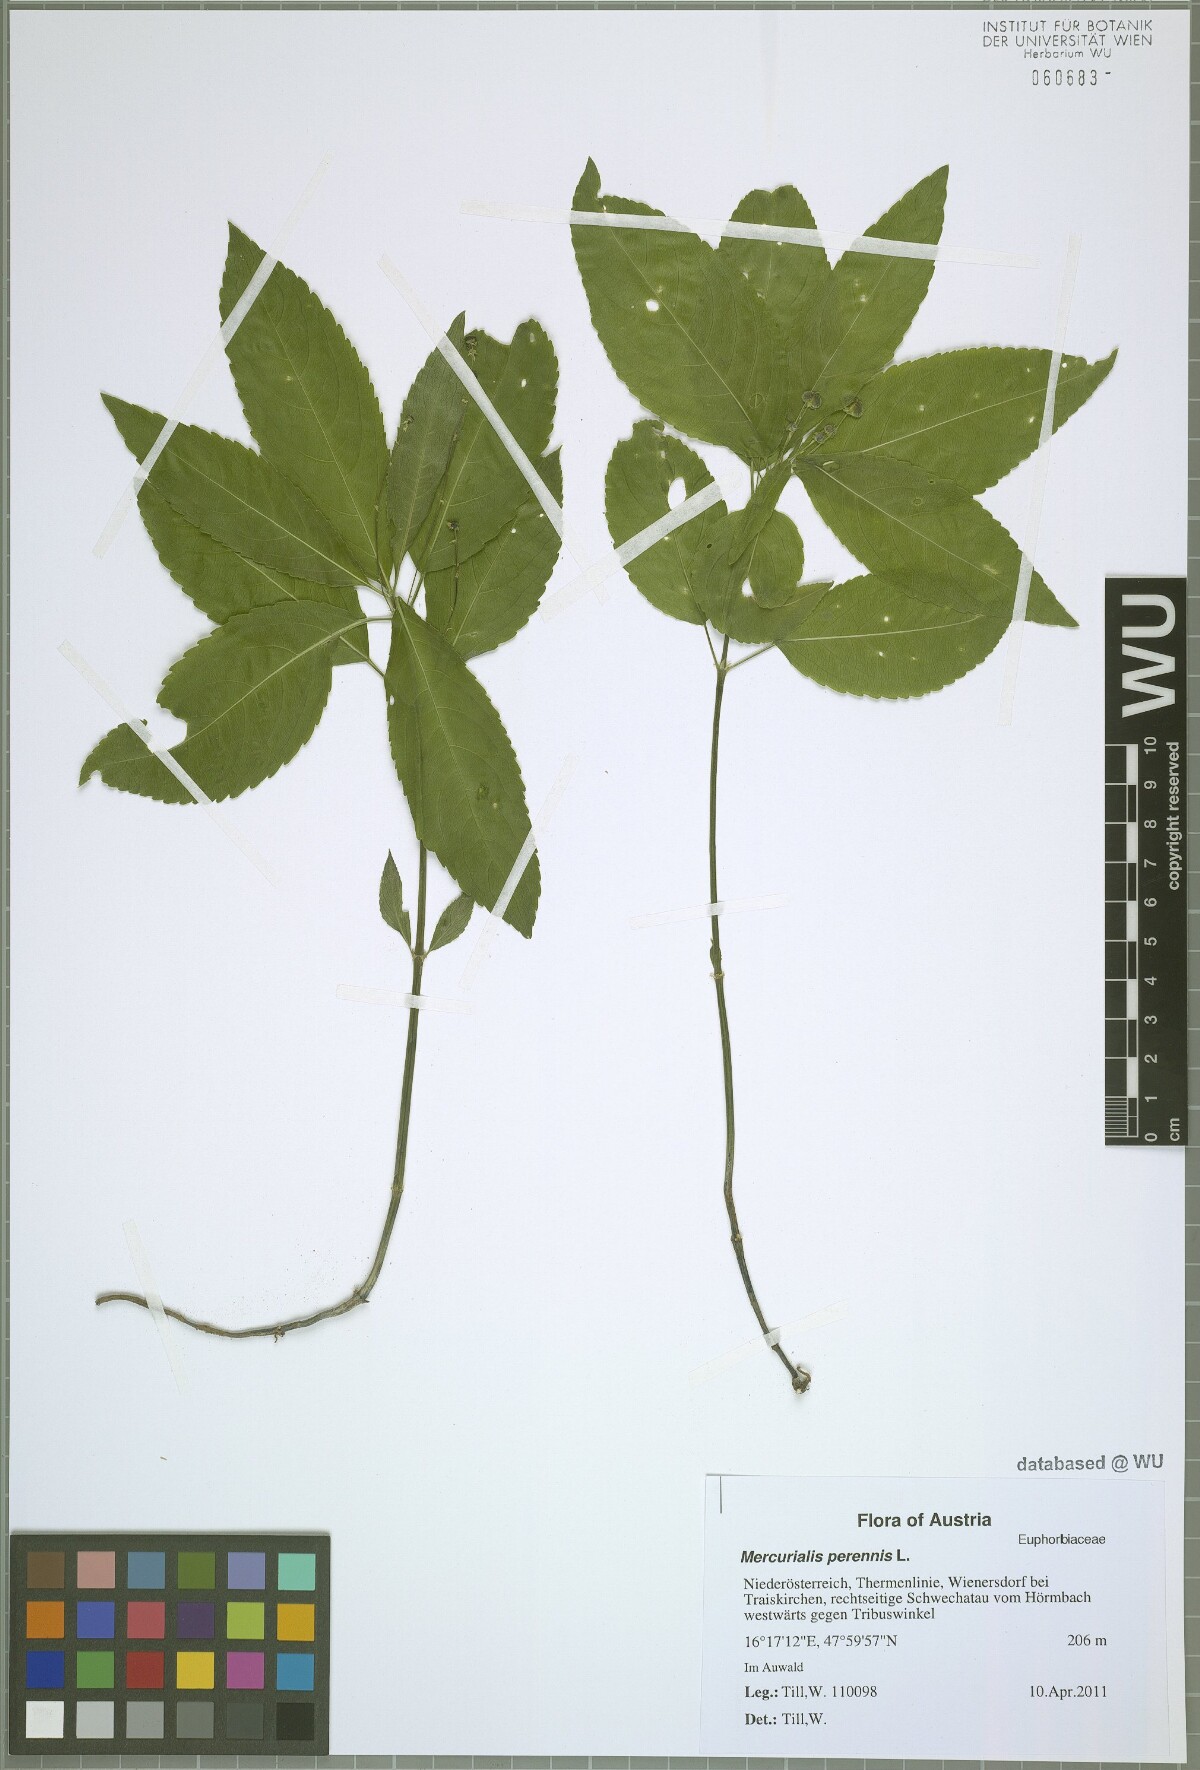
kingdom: Plantae
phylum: Tracheophyta
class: Magnoliopsida
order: Malpighiales
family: Euphorbiaceae
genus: Mercurialis
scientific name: Mercurialis perennis
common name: Dog mercury
